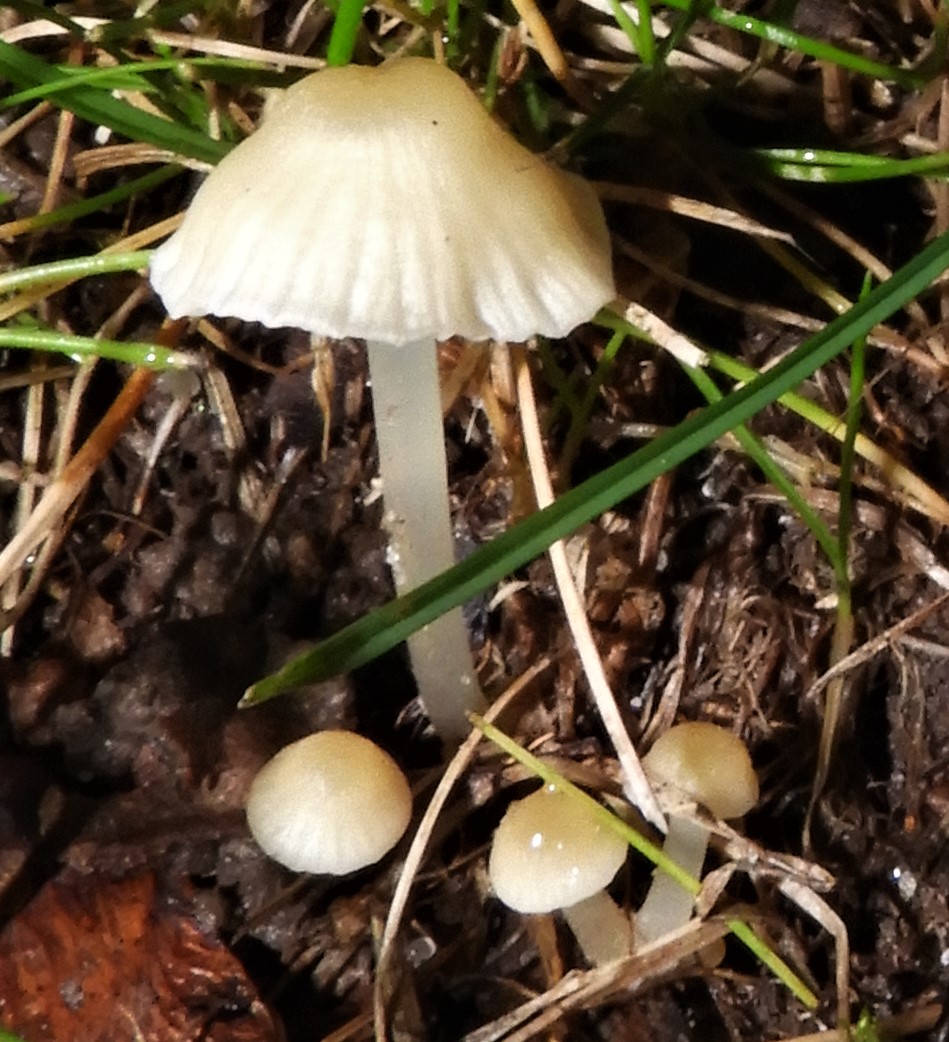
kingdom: Fungi
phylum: Basidiomycota
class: Agaricomycetes
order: Agaricales
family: Mycenaceae
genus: Atheniella
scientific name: Atheniella flavoalba
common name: gulhvid huesvamp
